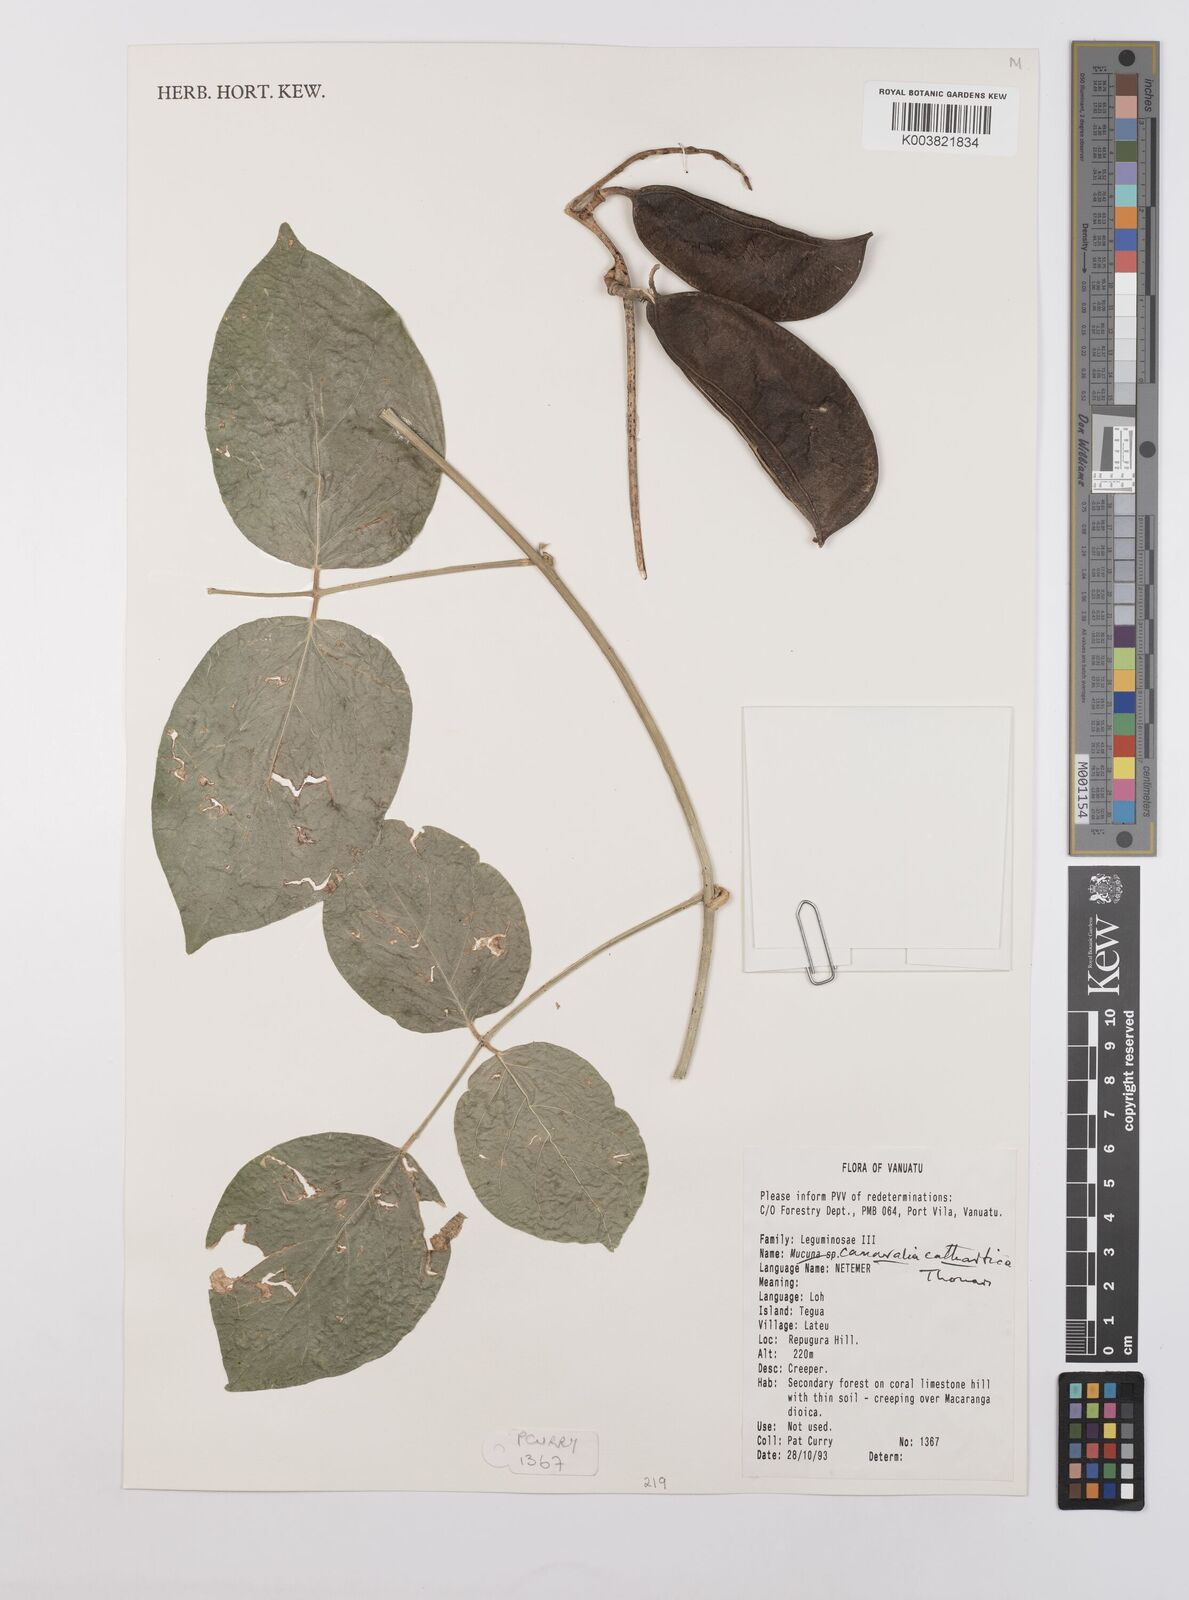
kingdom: Plantae
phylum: Tracheophyta
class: Magnoliopsida
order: Fabales
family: Fabaceae
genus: Canavalia
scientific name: Canavalia cathartica
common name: Maunaloa
